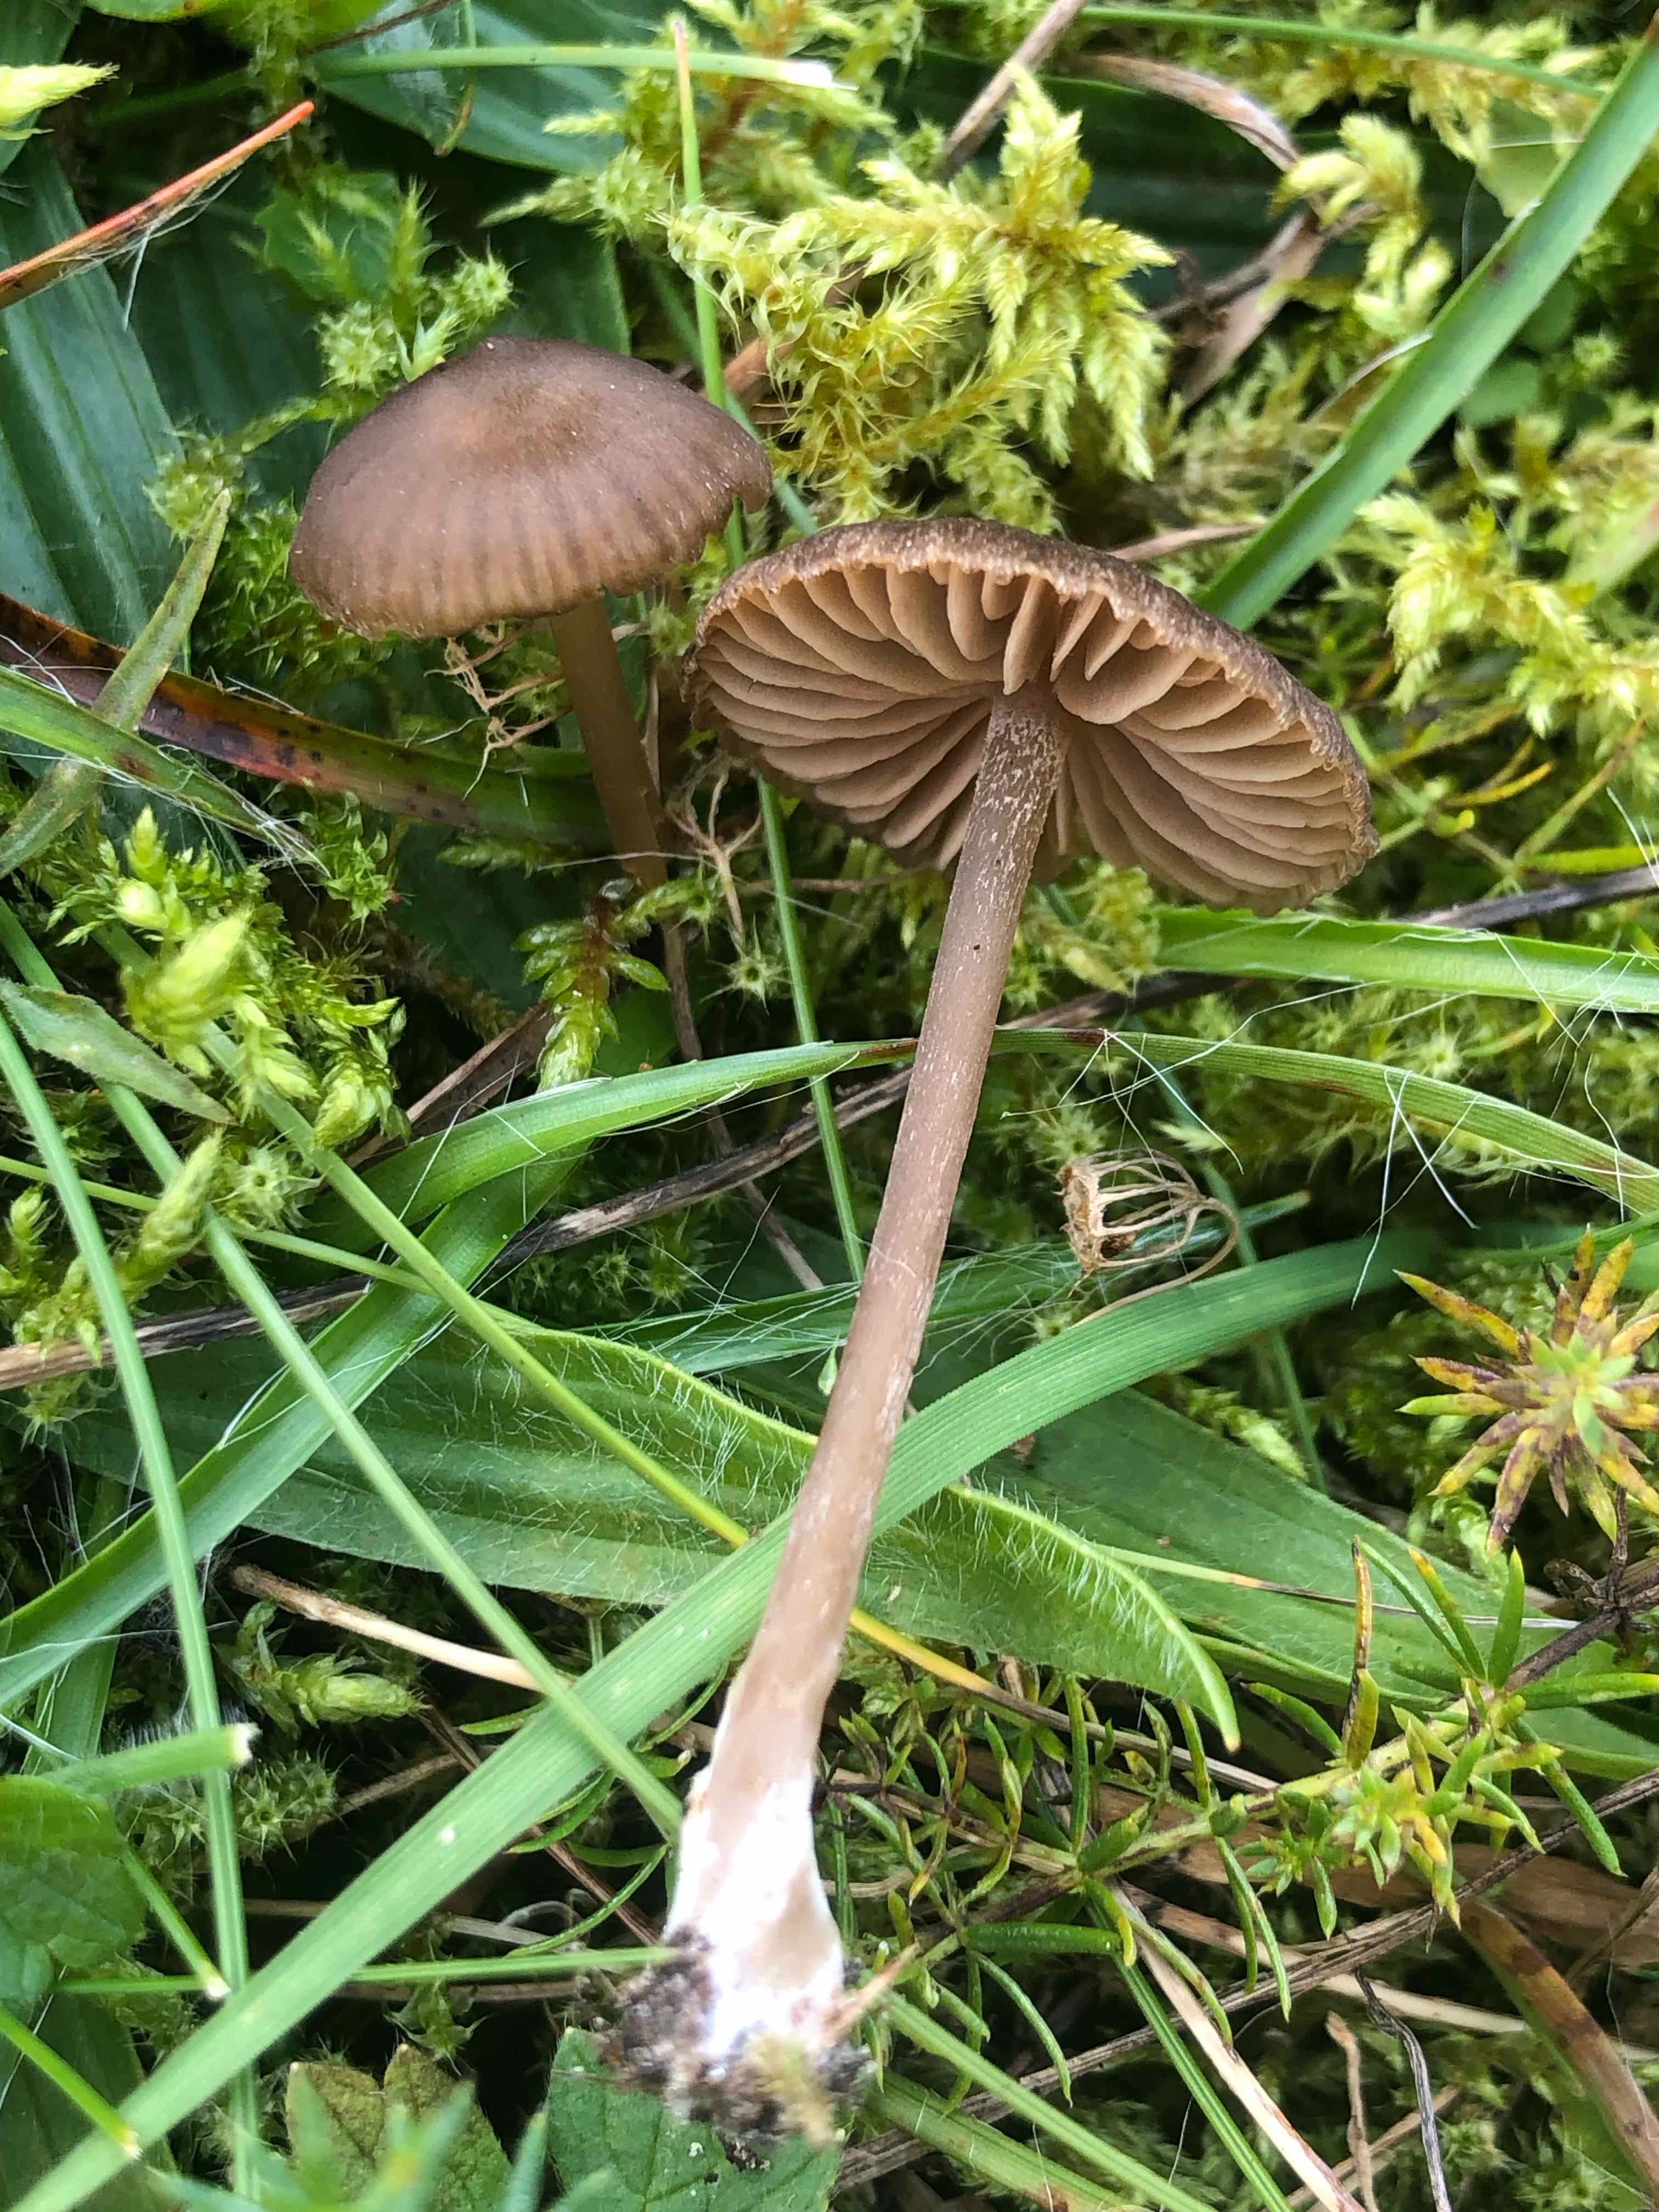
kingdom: Fungi
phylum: Basidiomycota
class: Agaricomycetes
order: Agaricales
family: Entolomataceae
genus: Entoloma
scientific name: Entoloma
